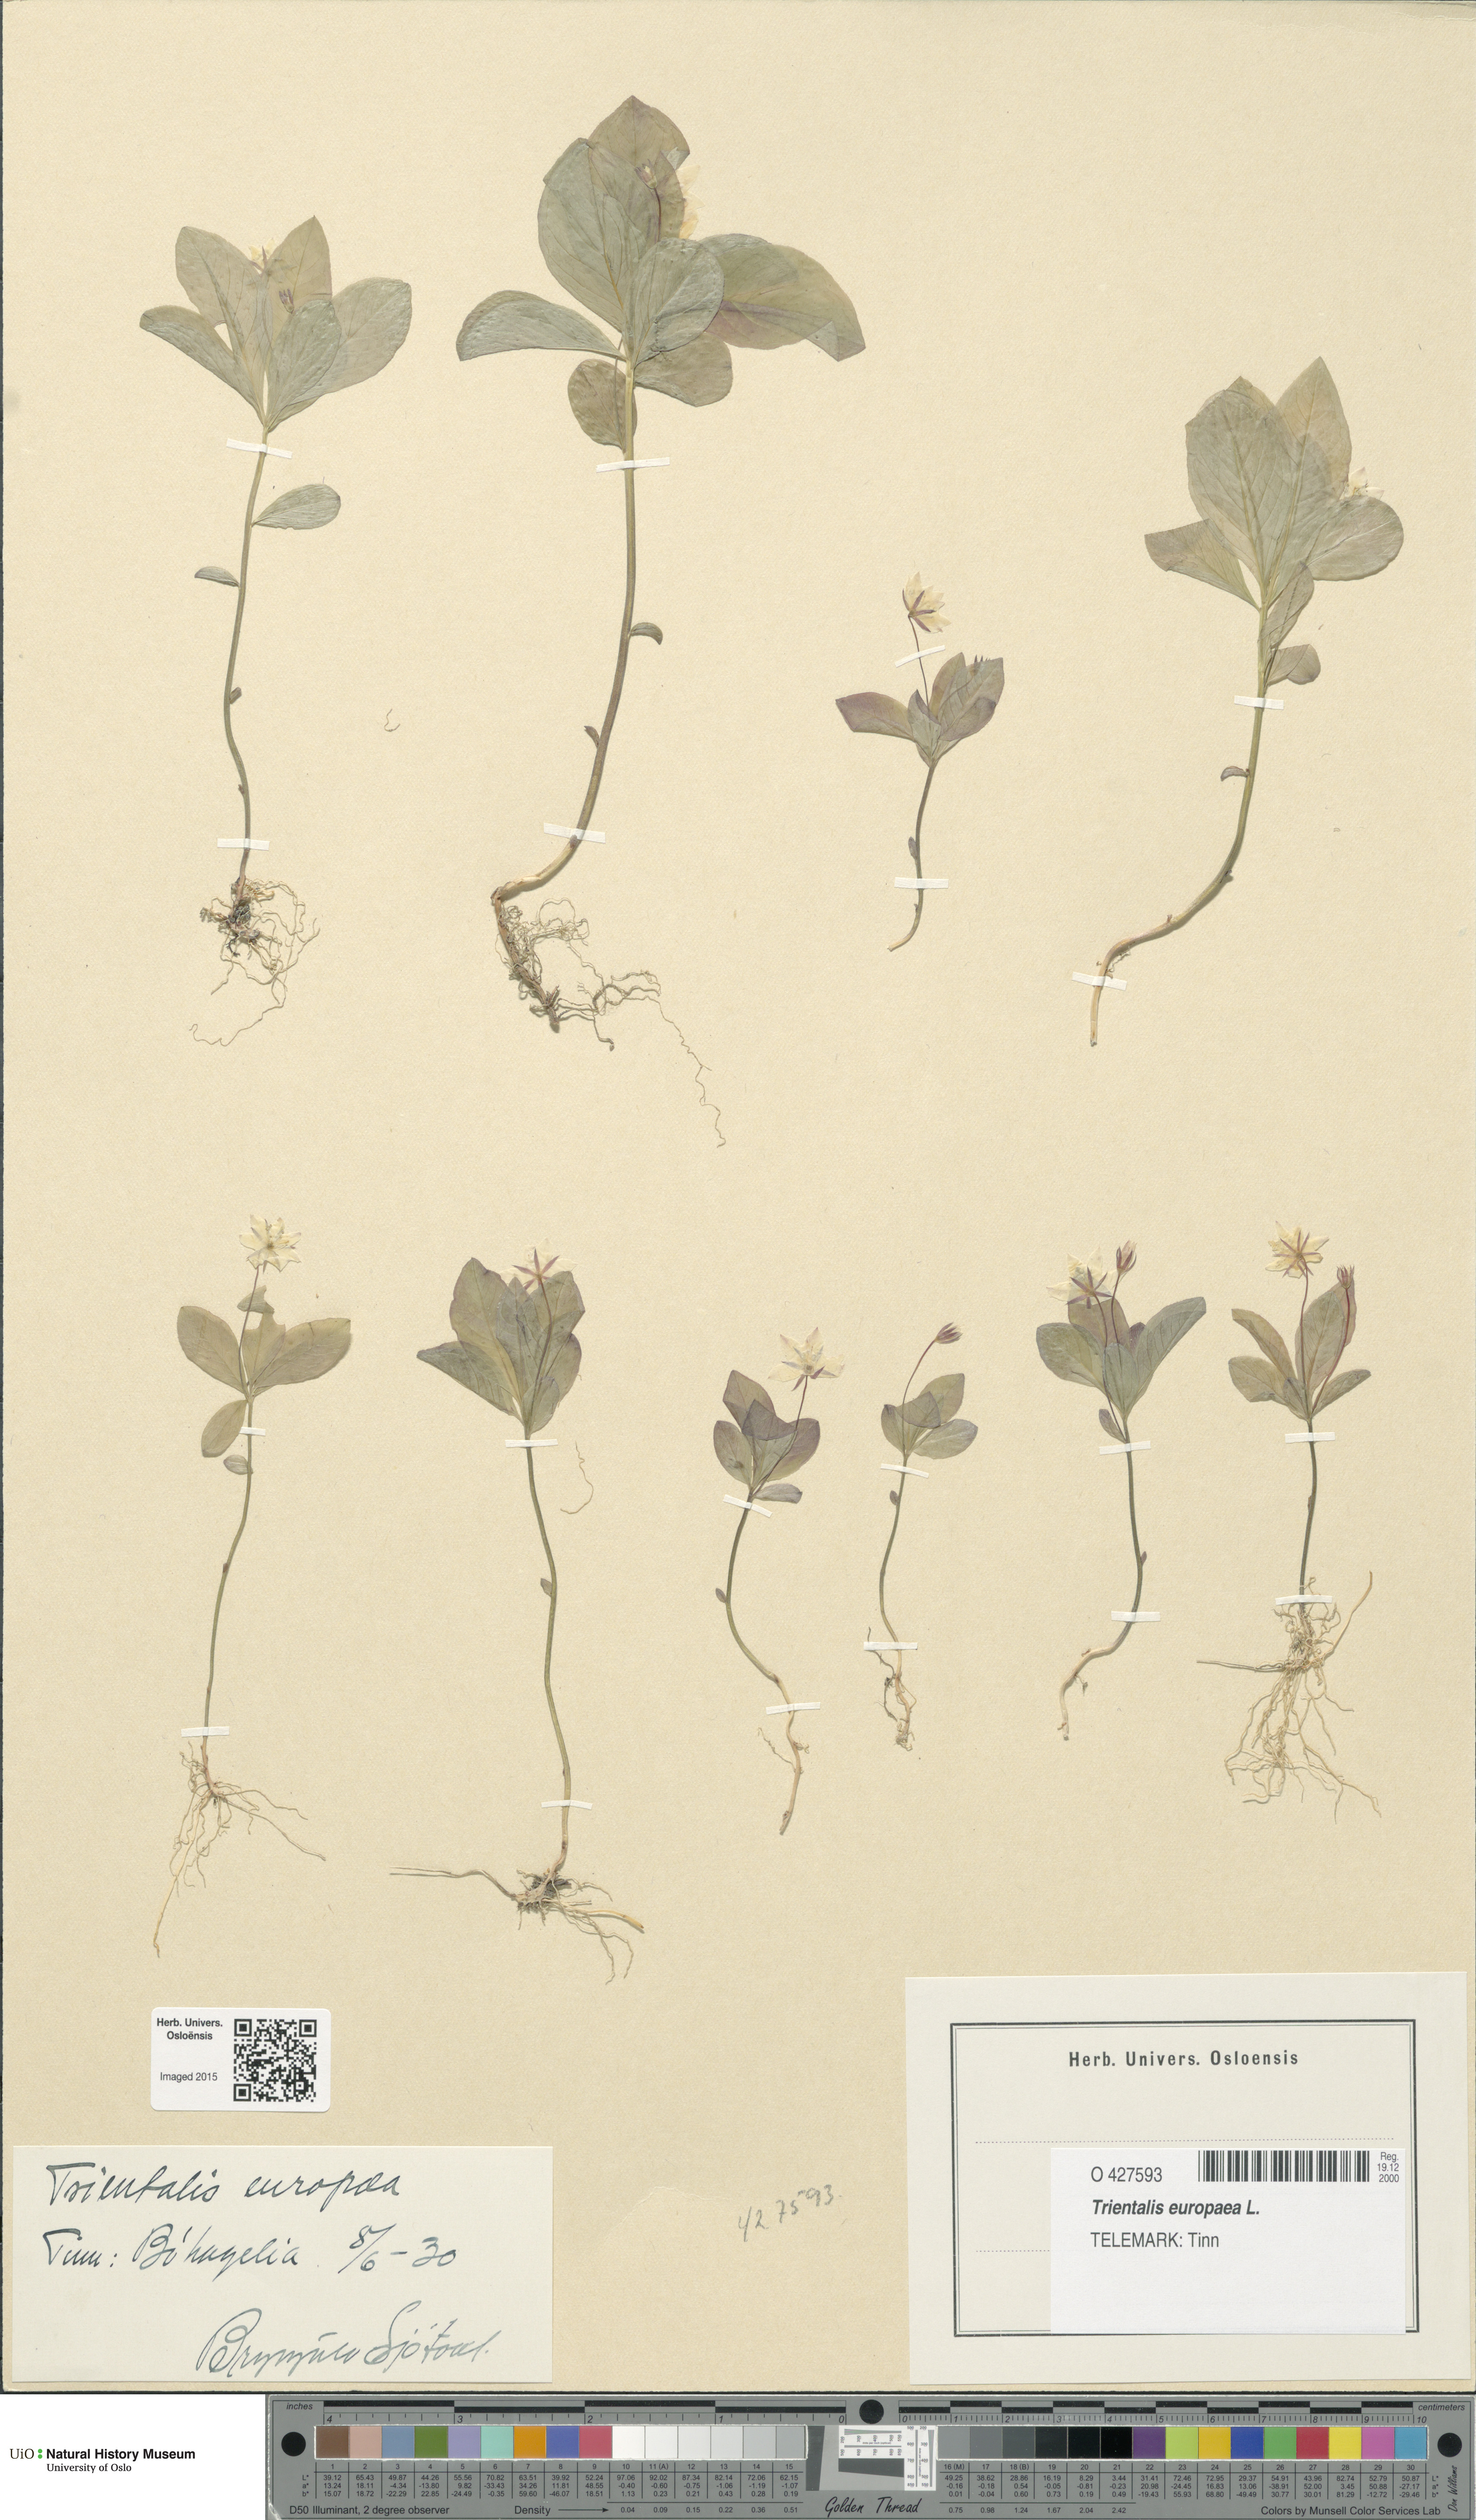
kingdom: Plantae
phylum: Tracheophyta
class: Magnoliopsida
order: Ericales
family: Primulaceae
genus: Lysimachia
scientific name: Lysimachia europaea
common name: Arctic starflower
